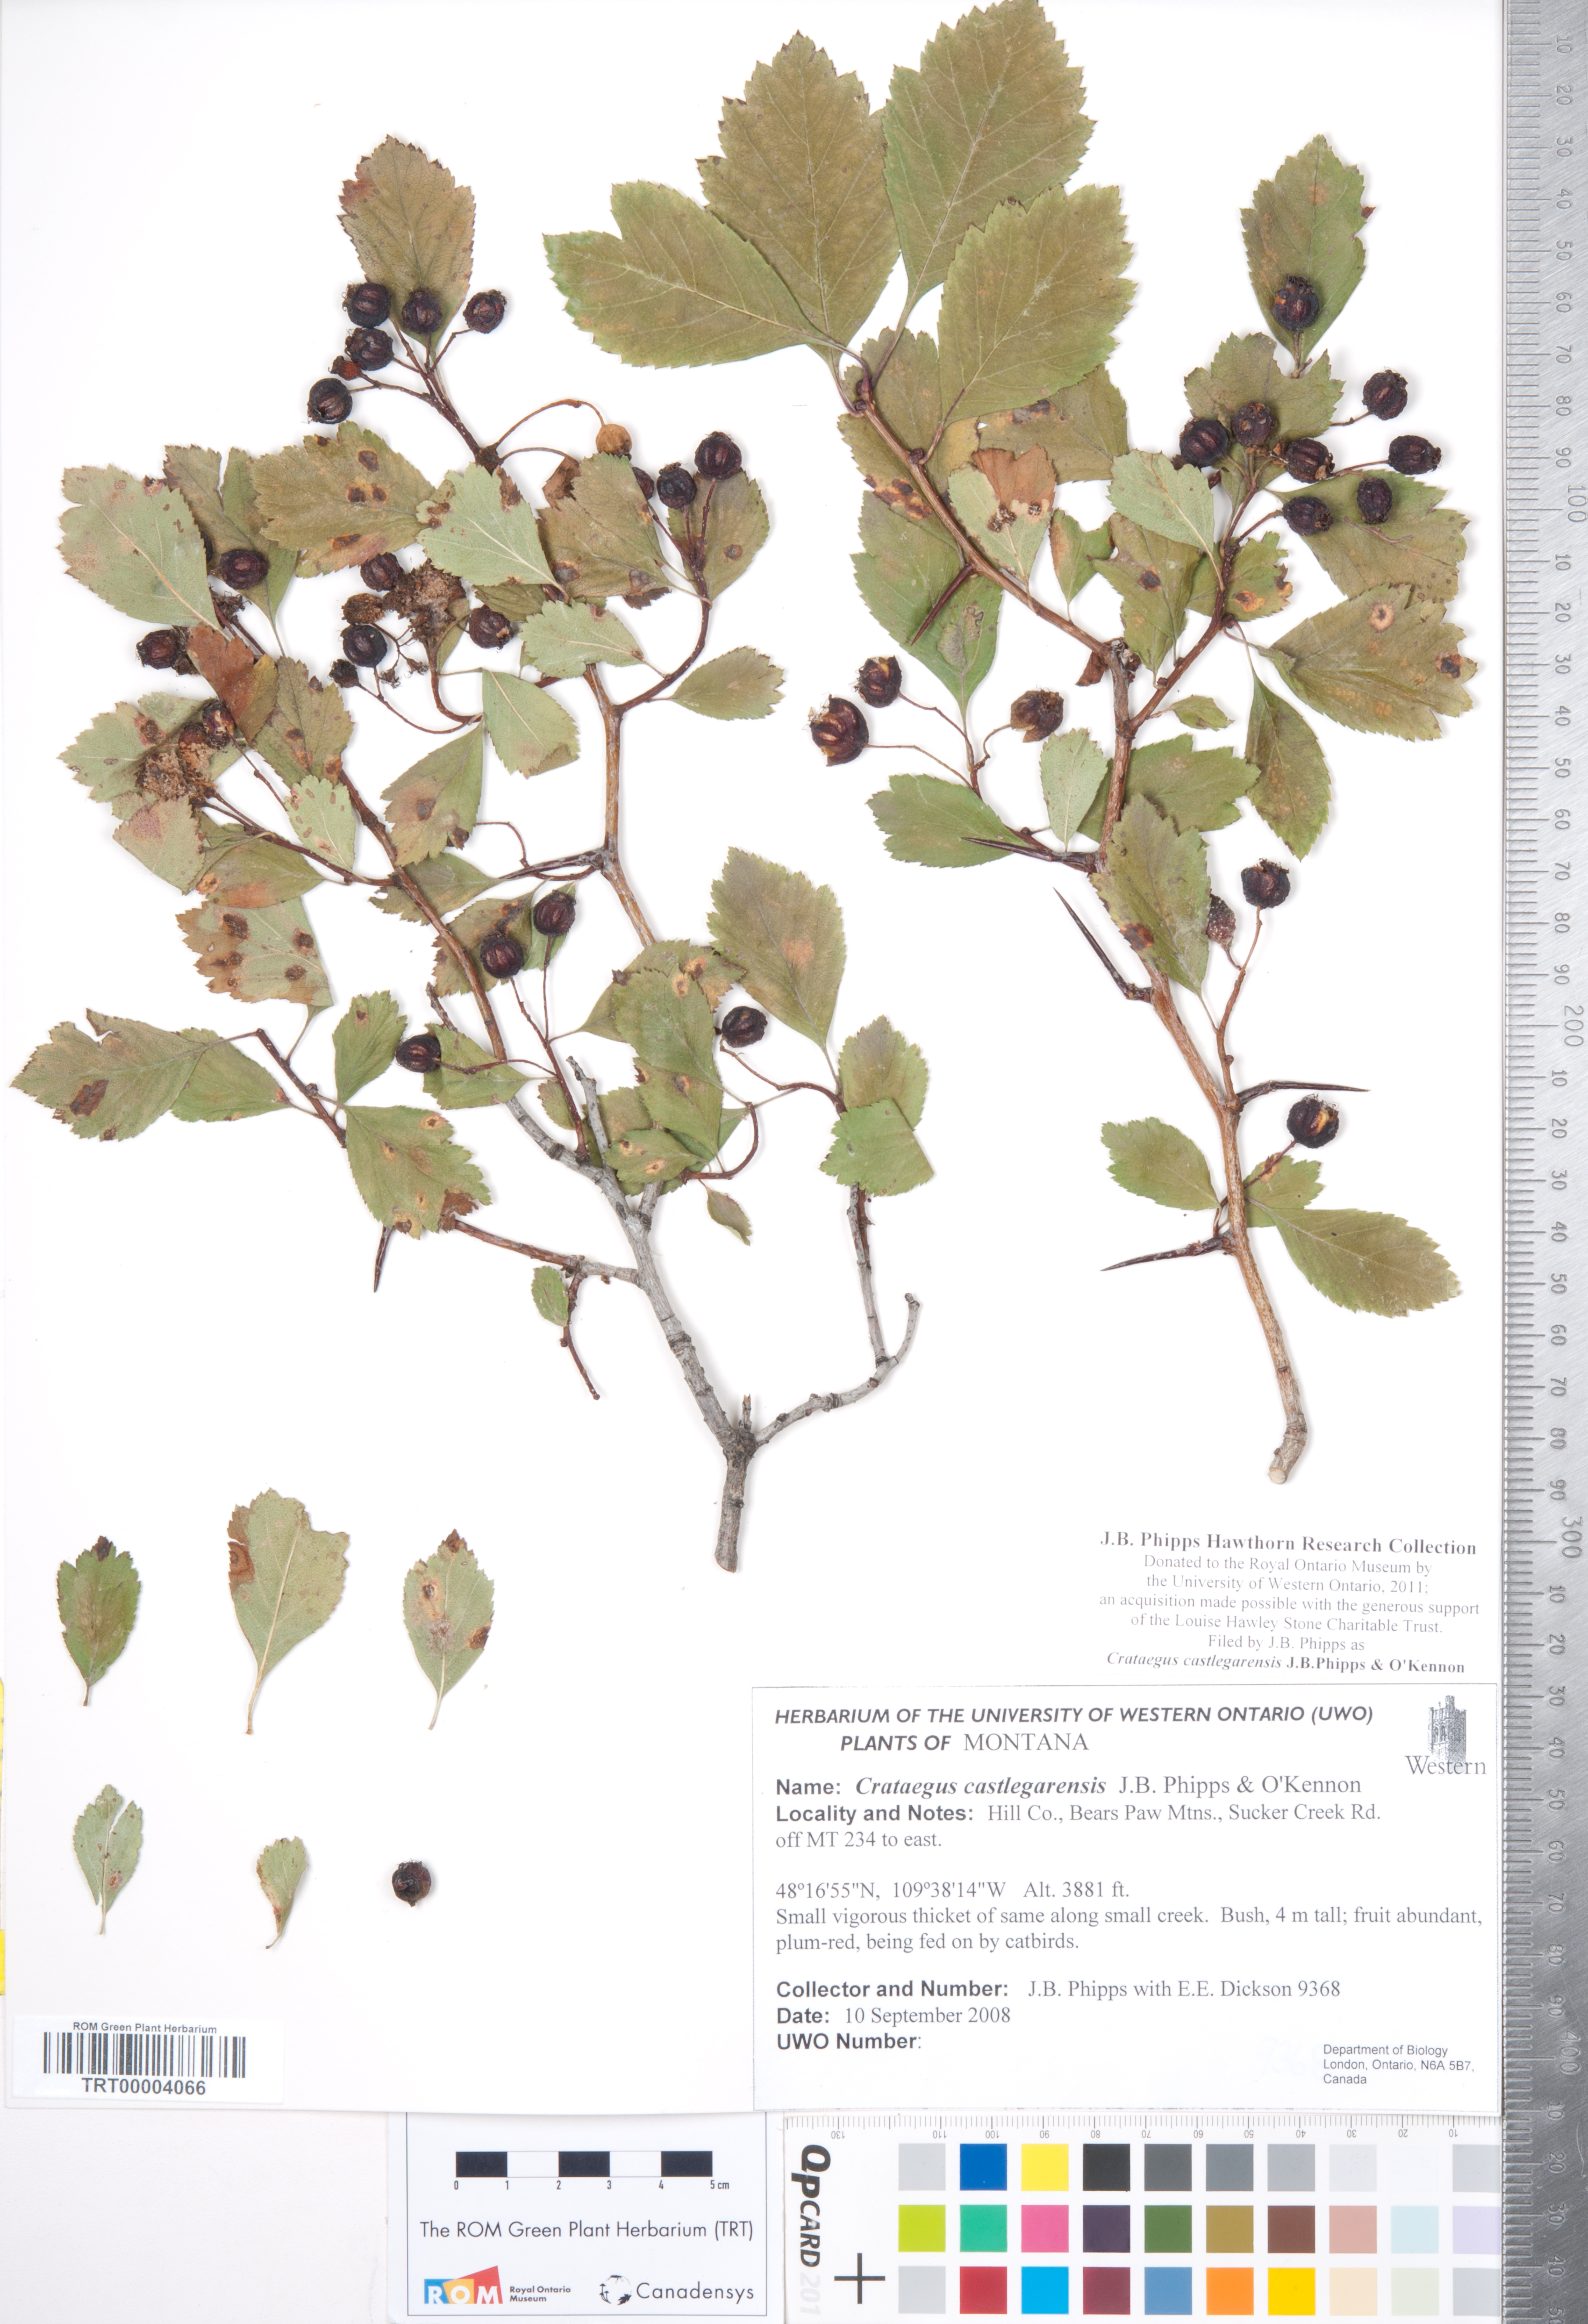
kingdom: Plantae
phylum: Tracheophyta
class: Magnoliopsida
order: Rosales
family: Rosaceae
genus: Crataegus
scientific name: Crataegus castlegarensis
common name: Castlegar hawthorn
